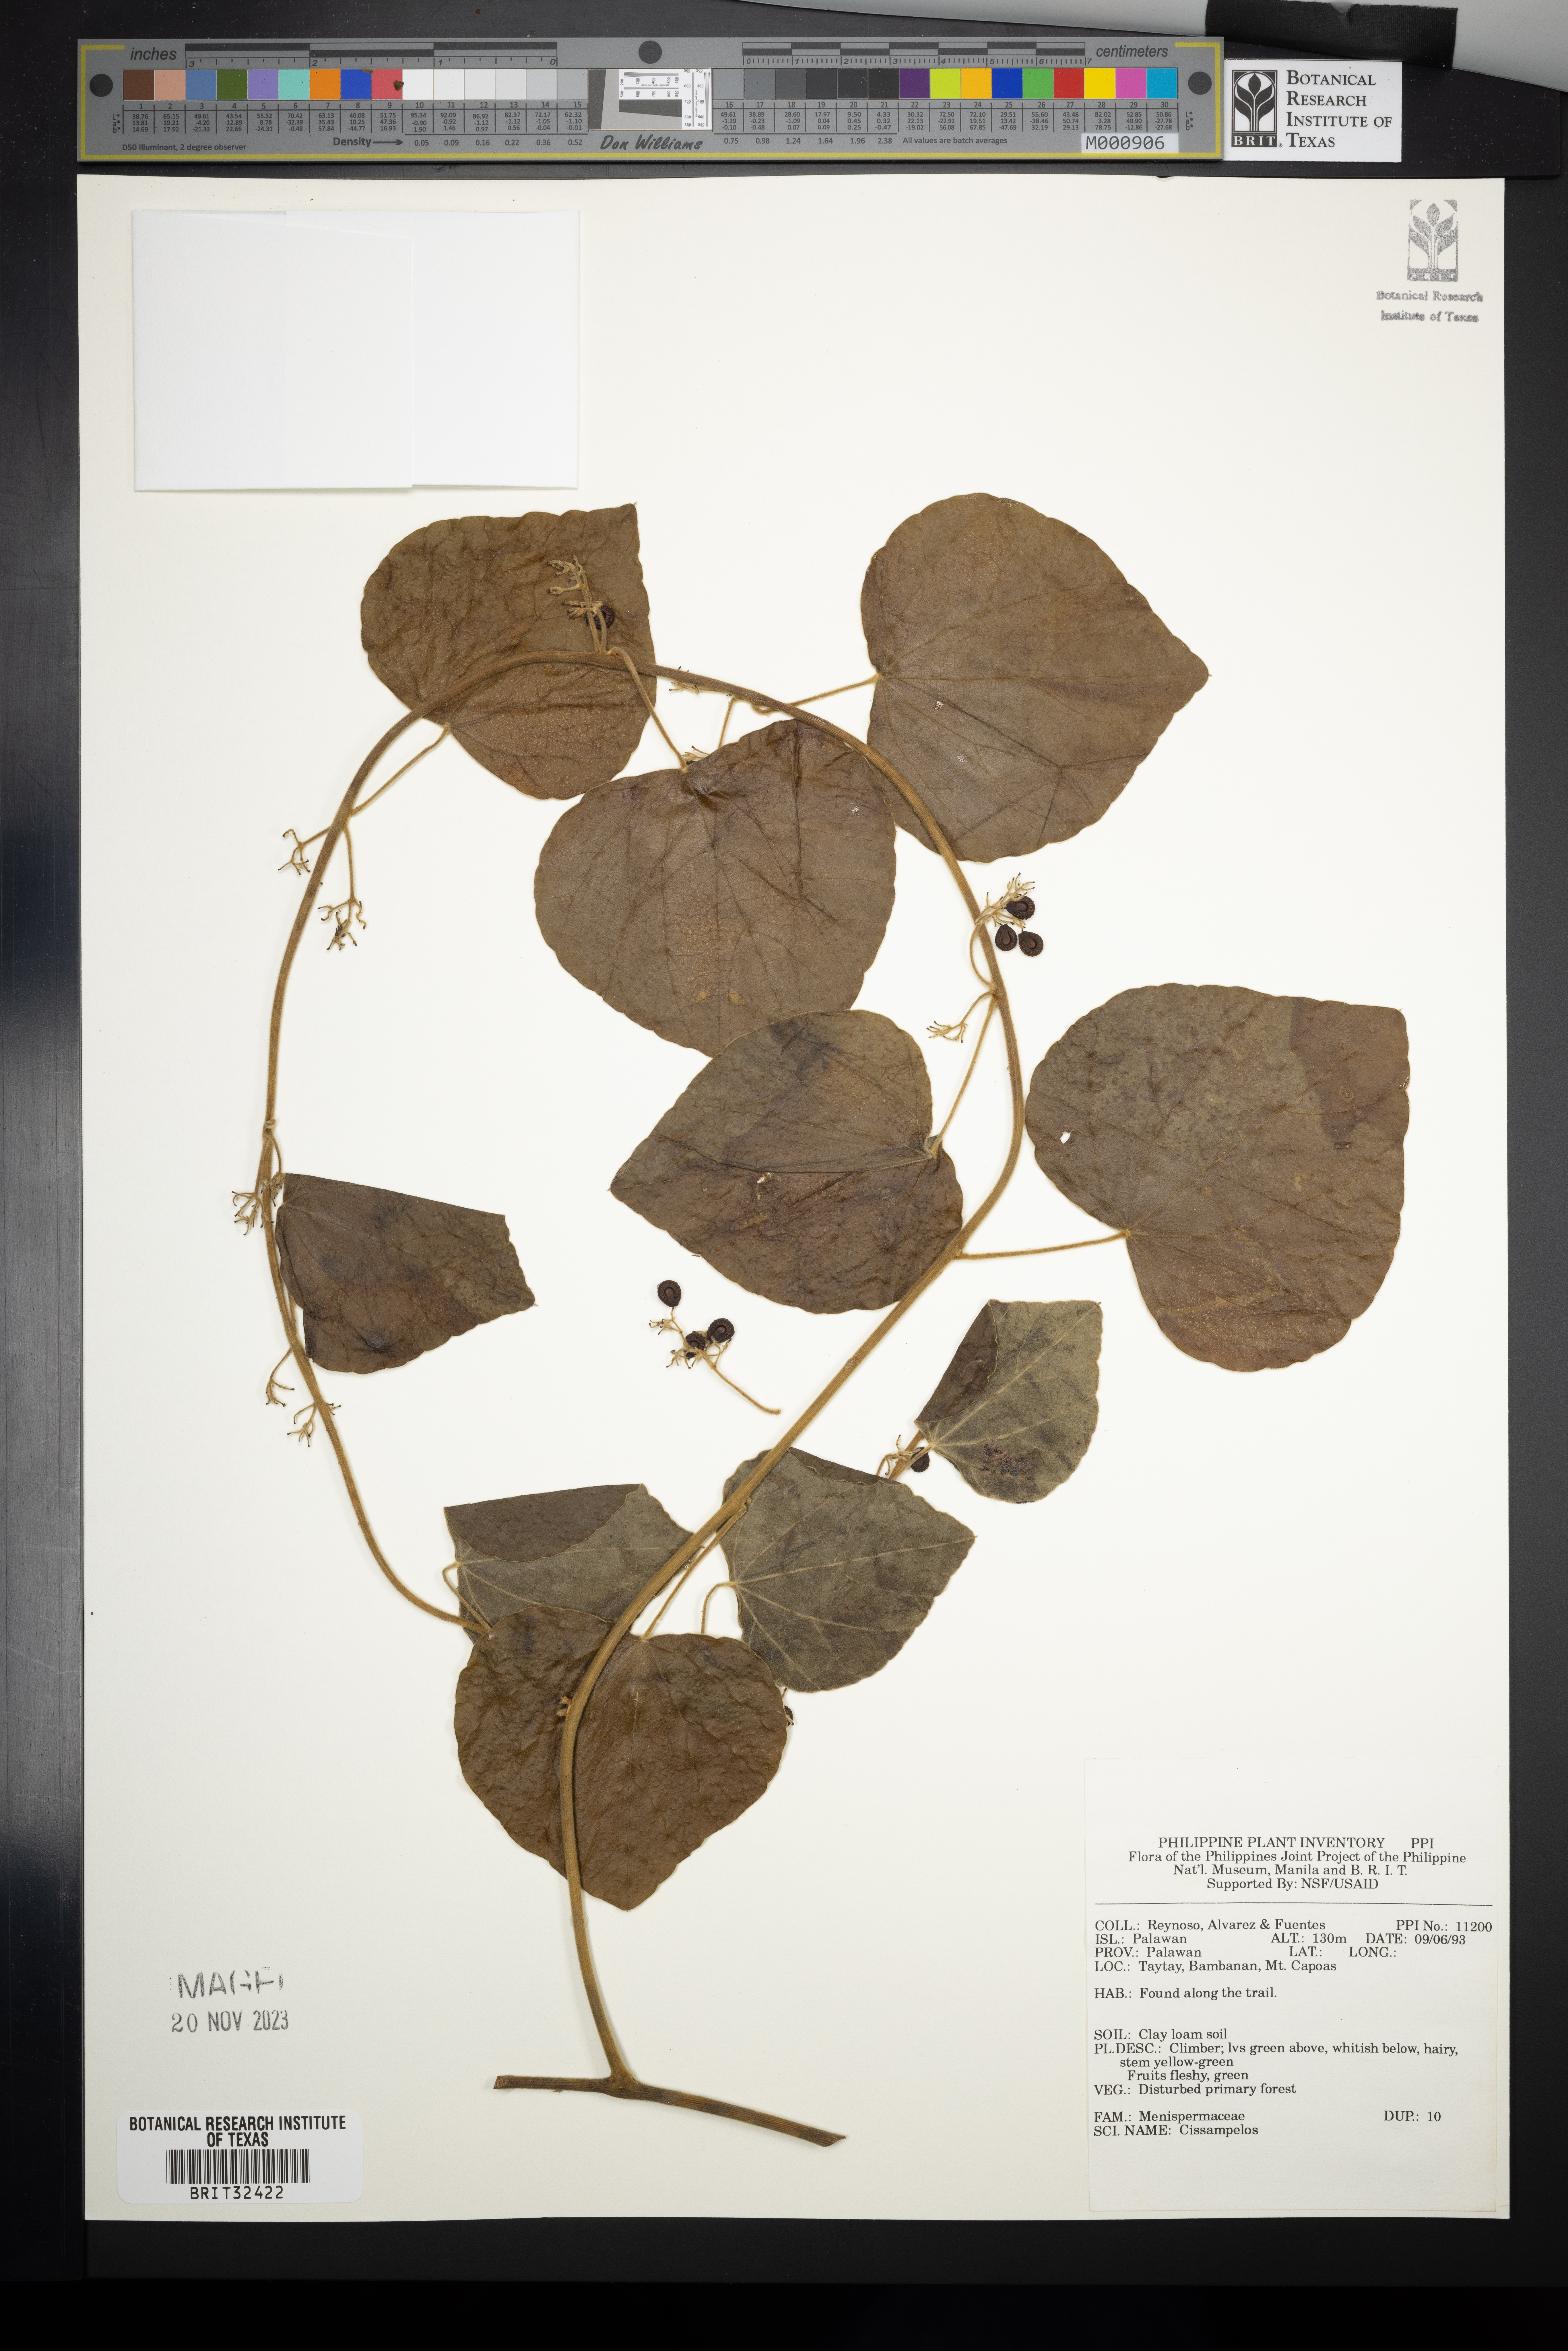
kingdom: Plantae
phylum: Tracheophyta
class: Magnoliopsida
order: Ranunculales
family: Menispermaceae
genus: Cissampelos
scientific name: Cissampelos
